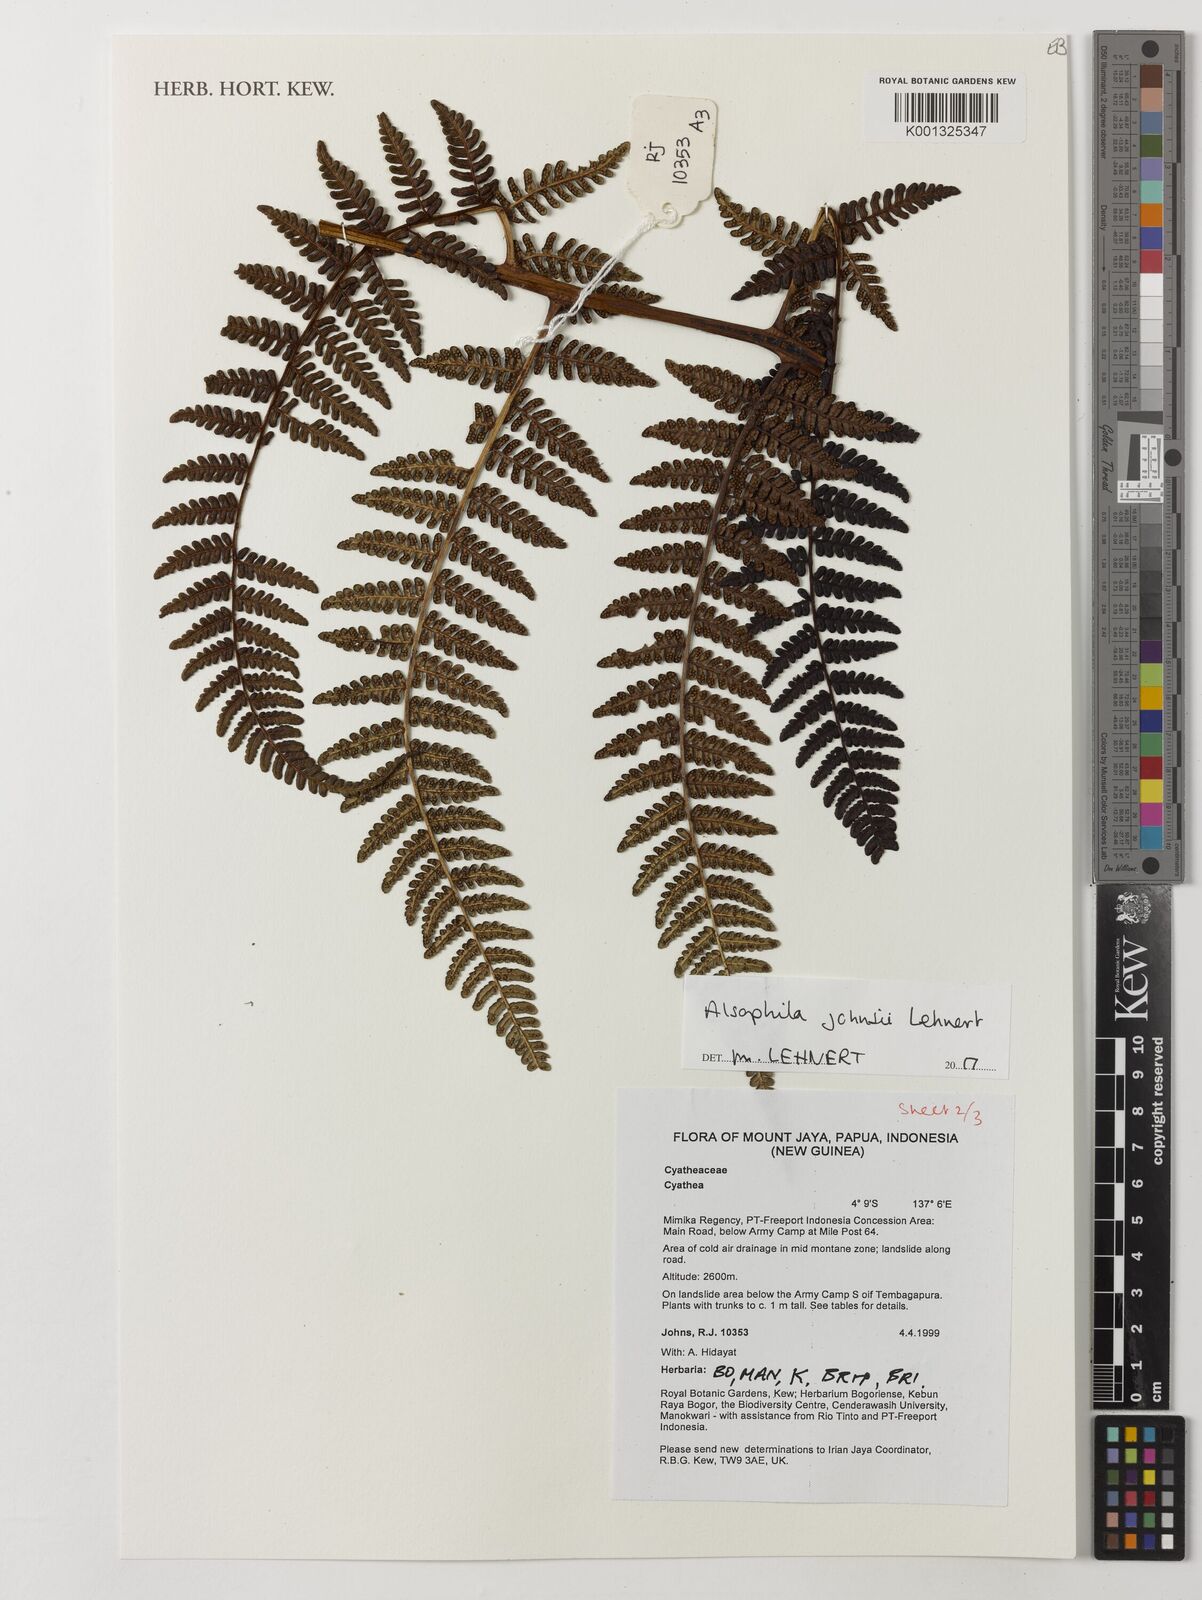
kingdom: Plantae
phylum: Tracheophyta
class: Polypodiopsida
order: Cyatheales
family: Cyatheaceae
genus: Alsophila
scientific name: Alsophila johnsii
